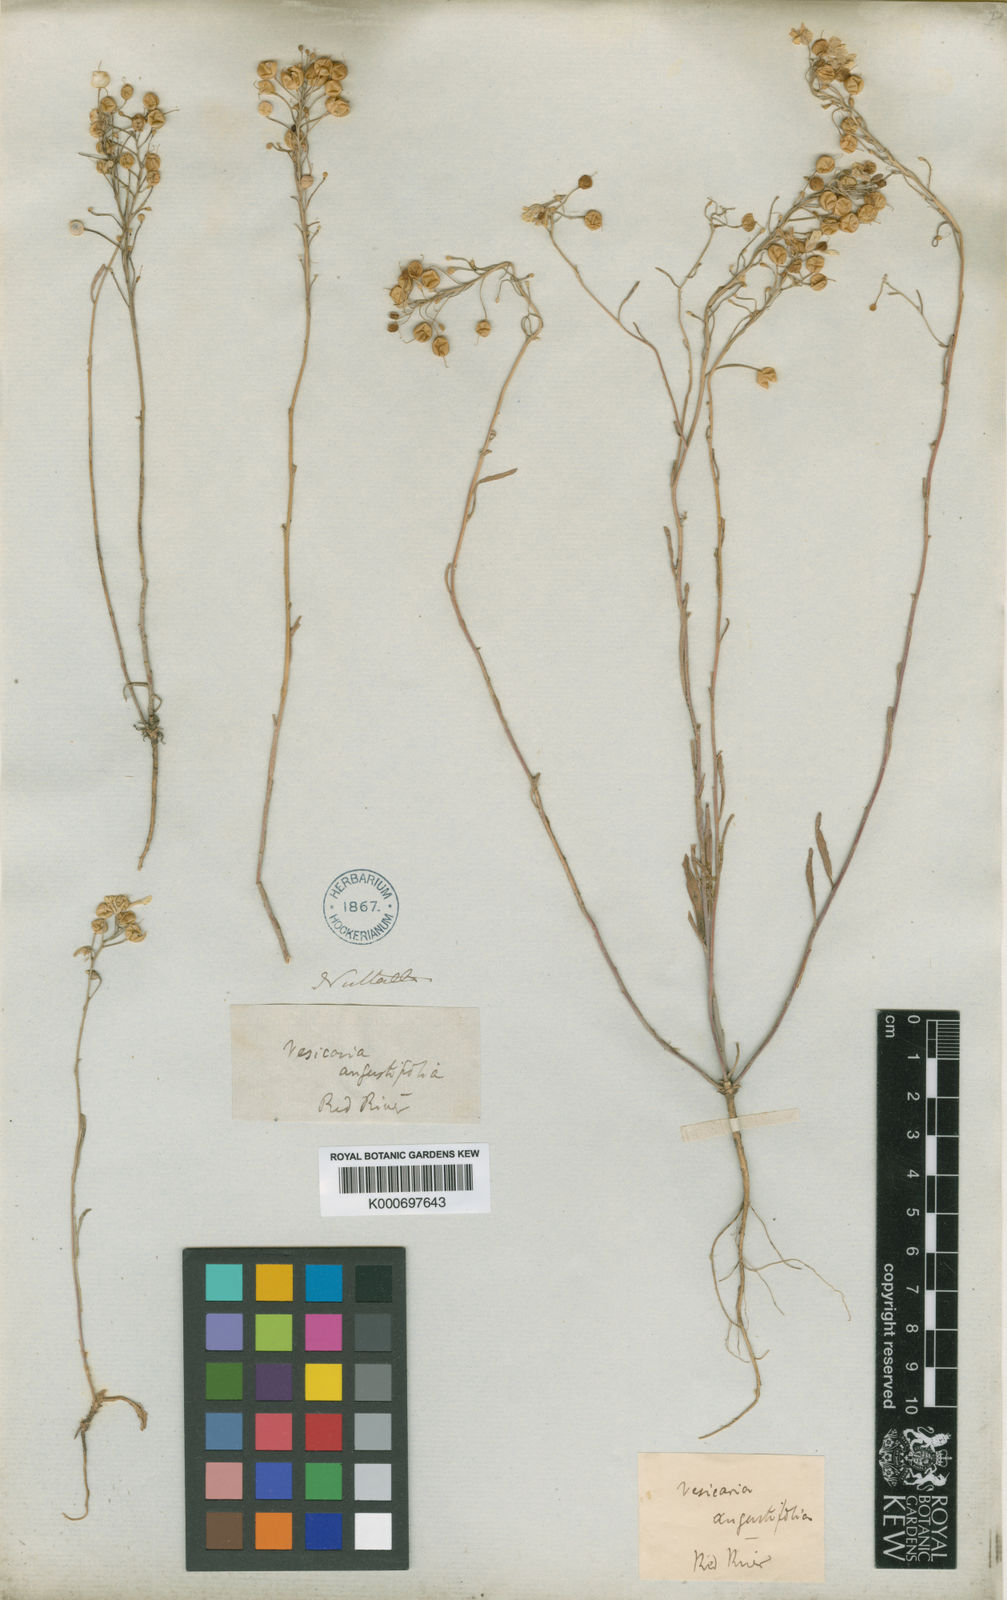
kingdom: Plantae
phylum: Tracheophyta
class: Magnoliopsida
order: Brassicales
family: Brassicaceae
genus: Physaria
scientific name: Physaria angustifolia
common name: Threadleaf bladderpod
